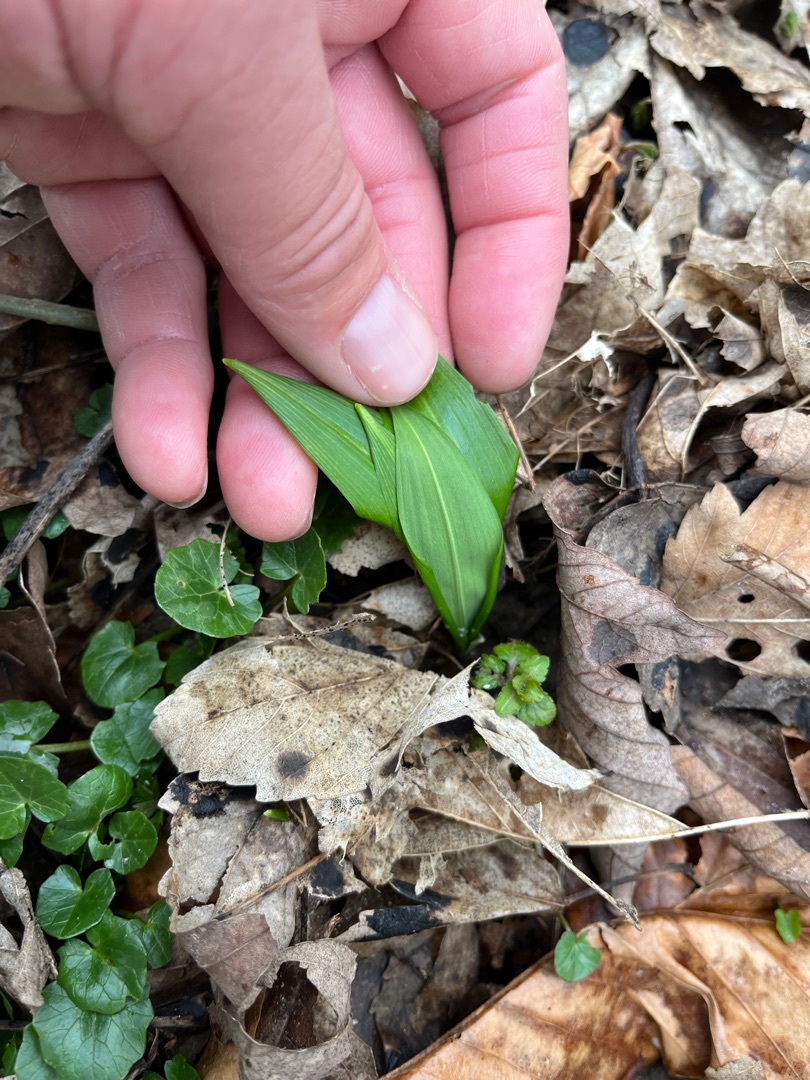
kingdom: Plantae
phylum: Tracheophyta
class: Liliopsida
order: Asparagales
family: Amaryllidaceae
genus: Allium
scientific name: Allium ursinum
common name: Rams-løg
